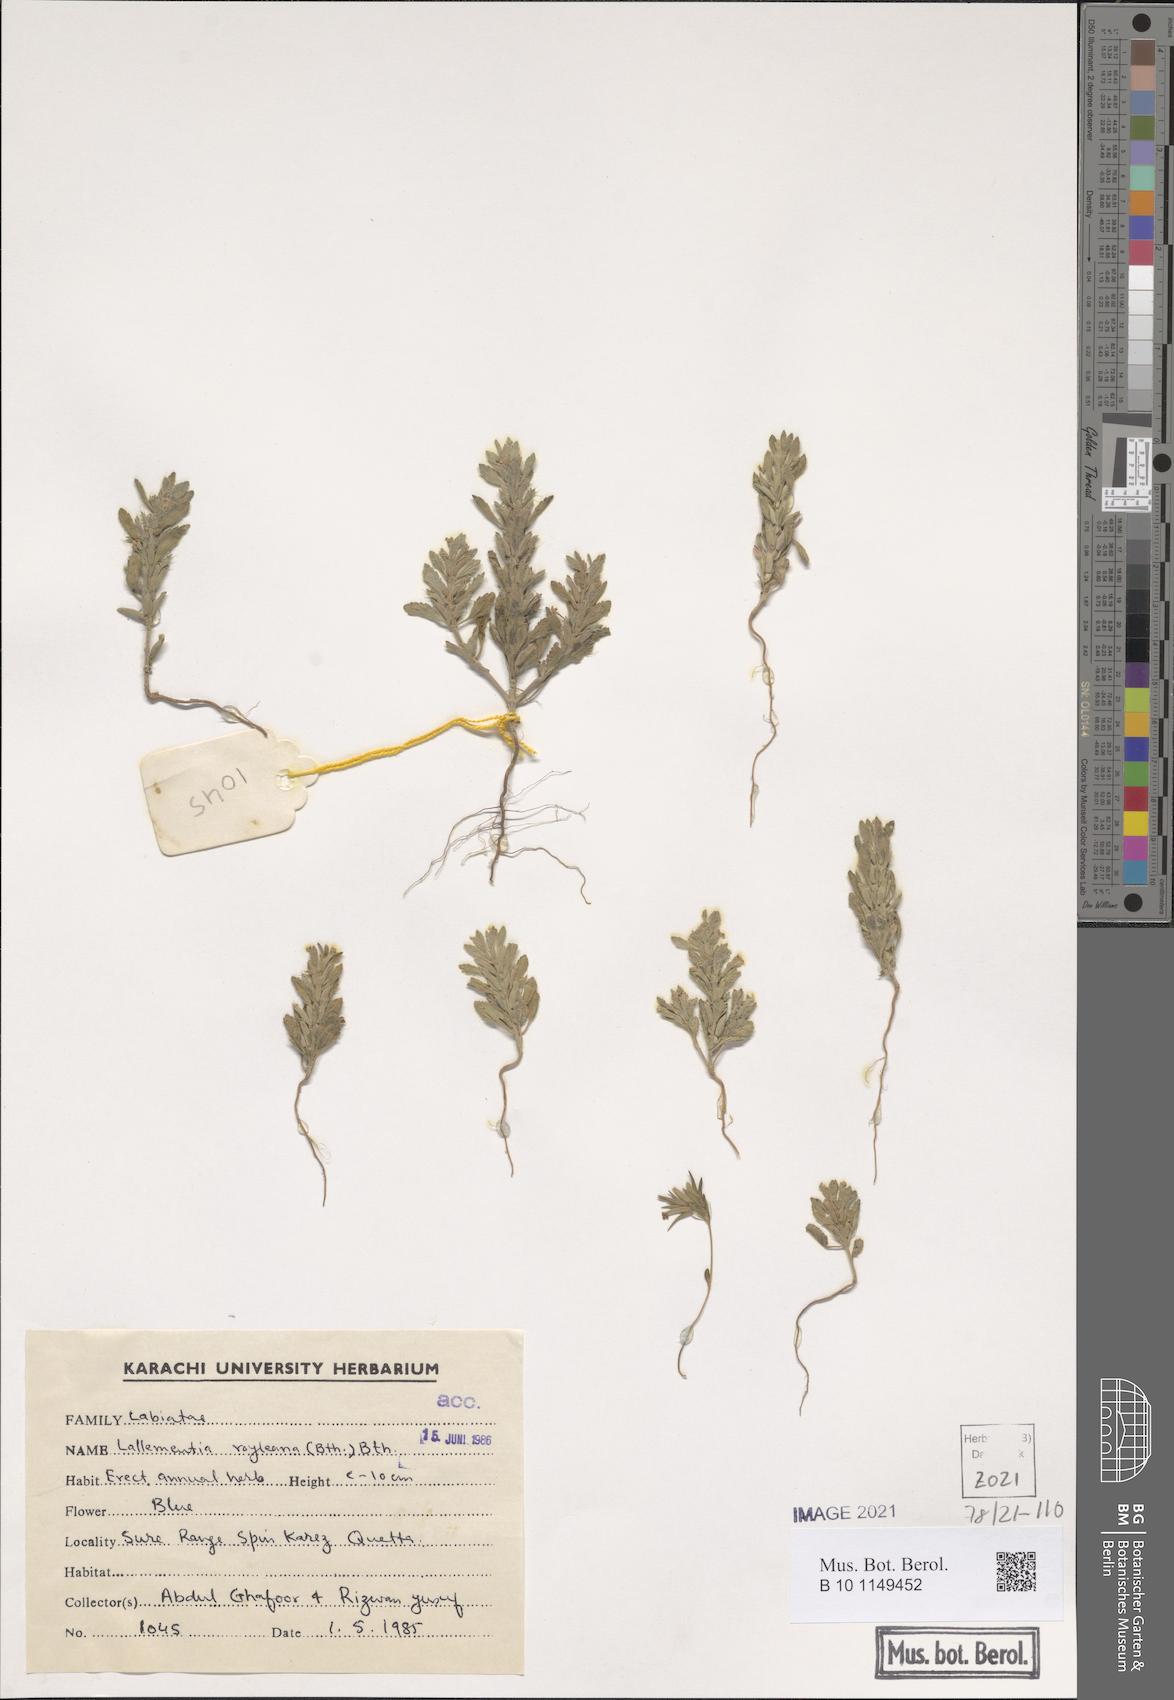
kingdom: Plantae
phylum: Tracheophyta
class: Magnoliopsida
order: Lamiales
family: Lamiaceae
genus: Lallemantia
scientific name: Lallemantia royleana
